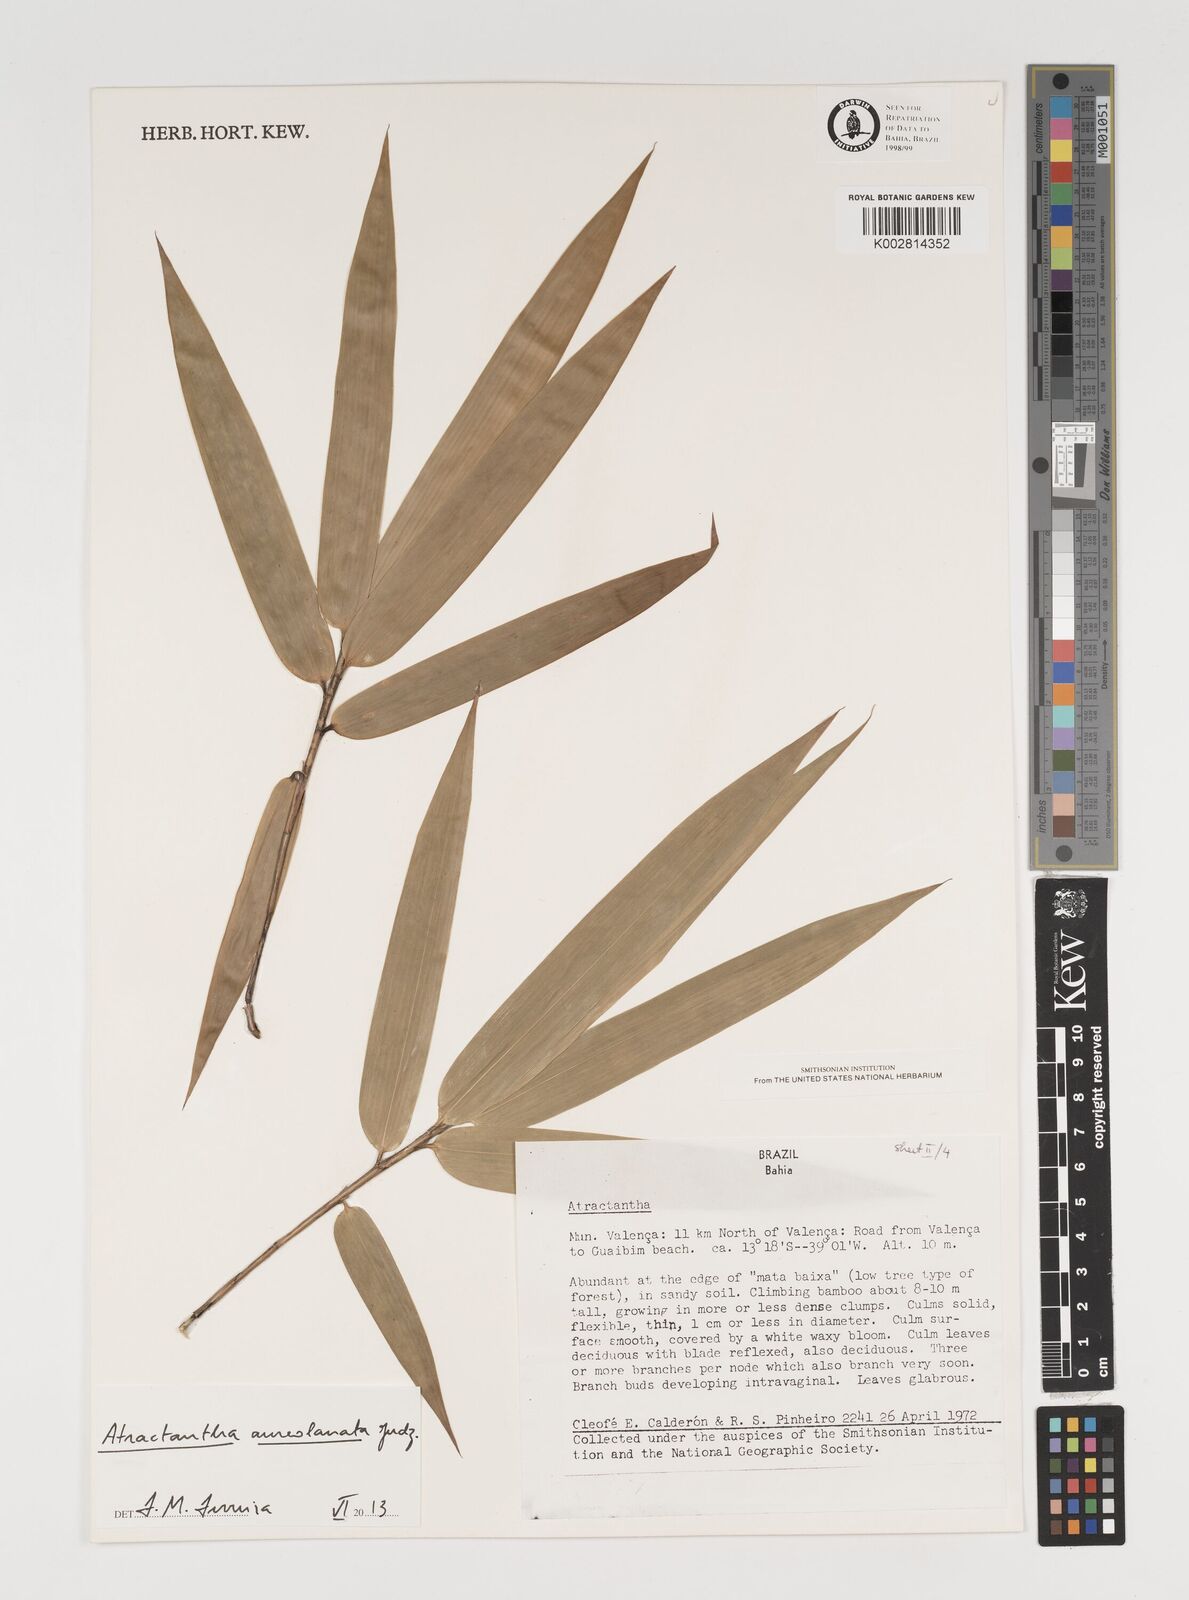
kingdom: Plantae
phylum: Tracheophyta
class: Liliopsida
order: Poales
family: Poaceae
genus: Atractantha
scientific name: Atractantha aureolanata
